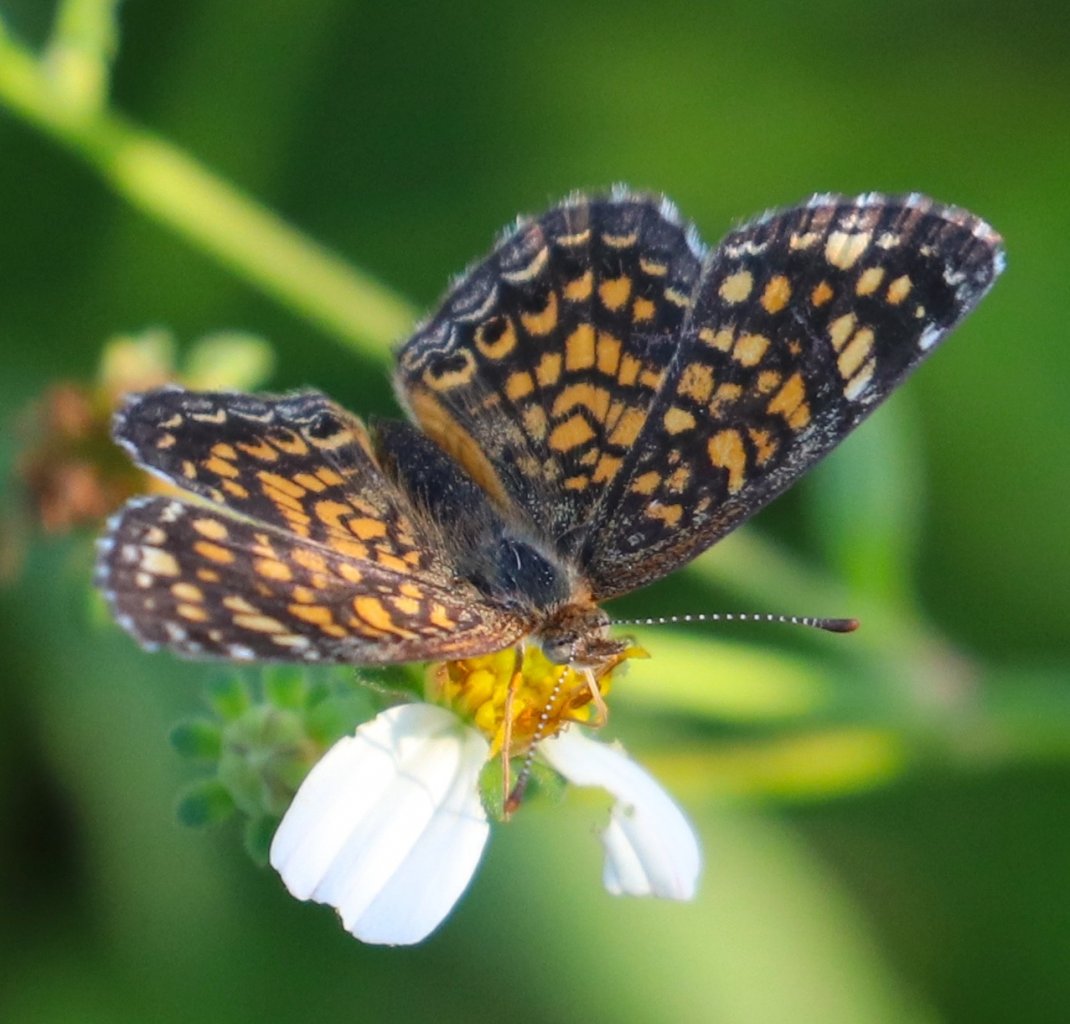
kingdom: Animalia
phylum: Arthropoda
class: Insecta
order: Lepidoptera
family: Nymphalidae
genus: Phyciodes
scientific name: Phyciodes vesta
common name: Vesta Crescent
